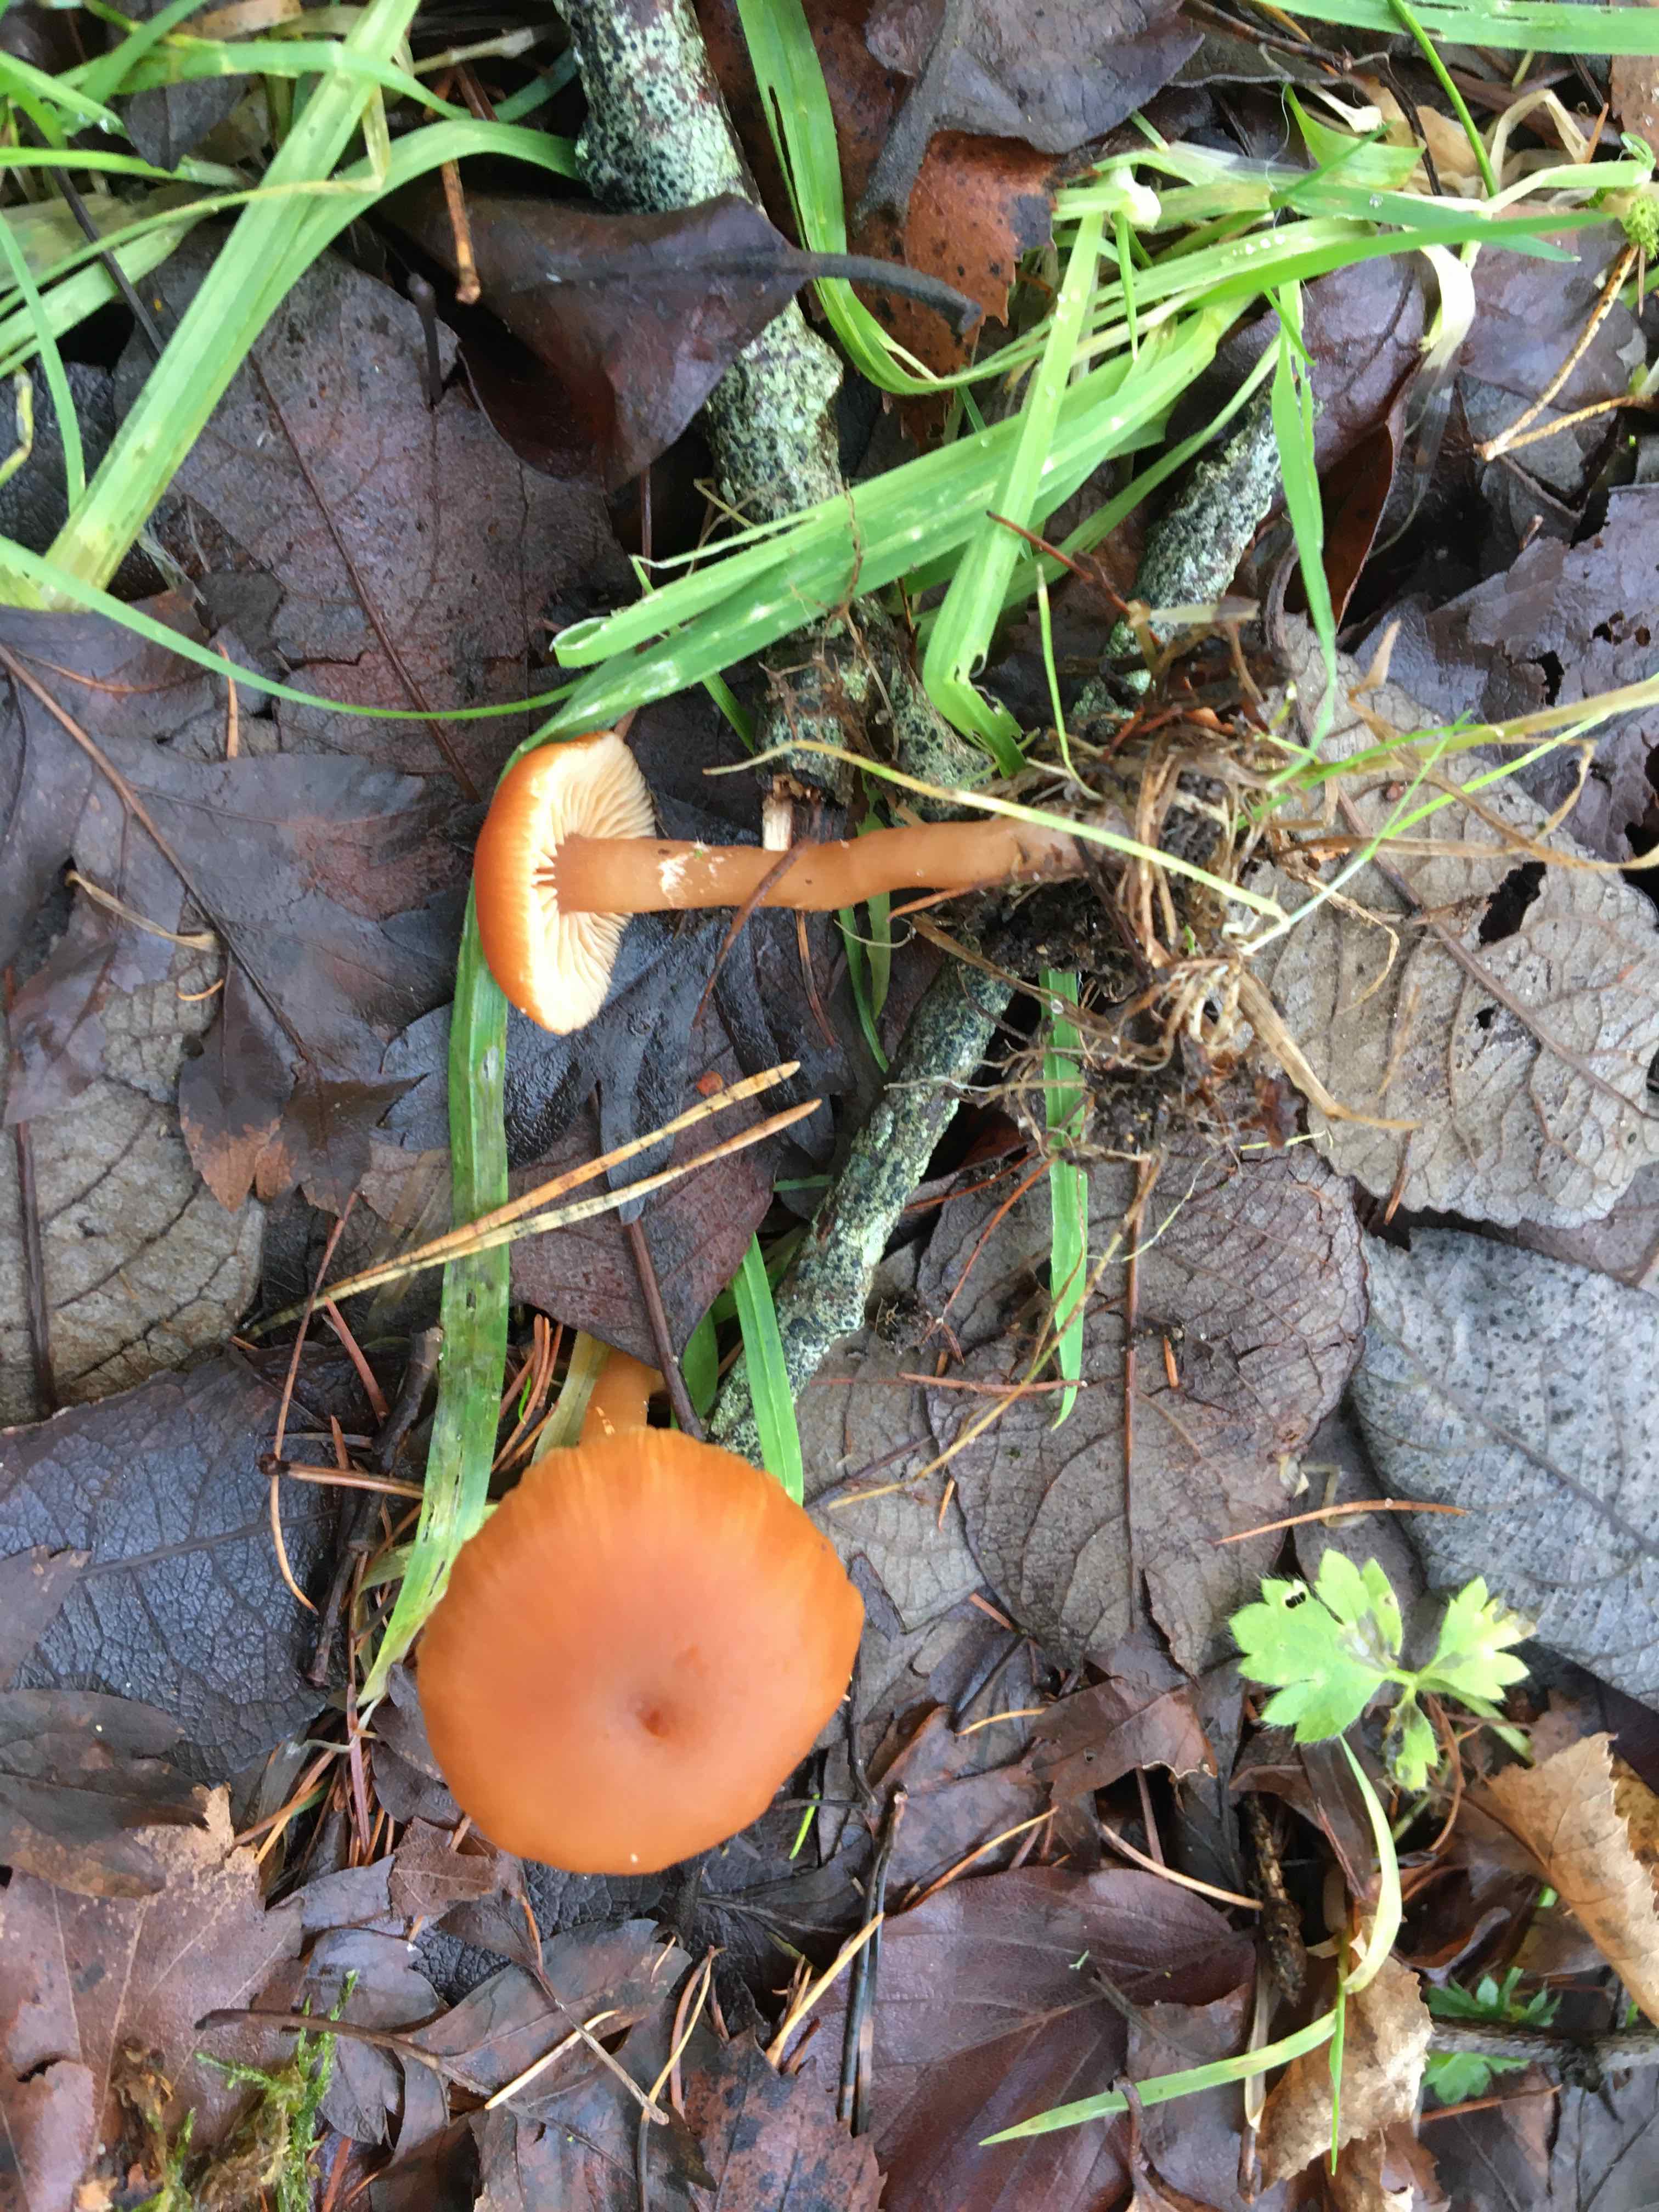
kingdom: Fungi
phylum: Basidiomycota
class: Agaricomycetes
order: Agaricales
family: Tubariaceae
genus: Tubaria
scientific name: Tubaria furfuracea
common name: kliddet fnughat
